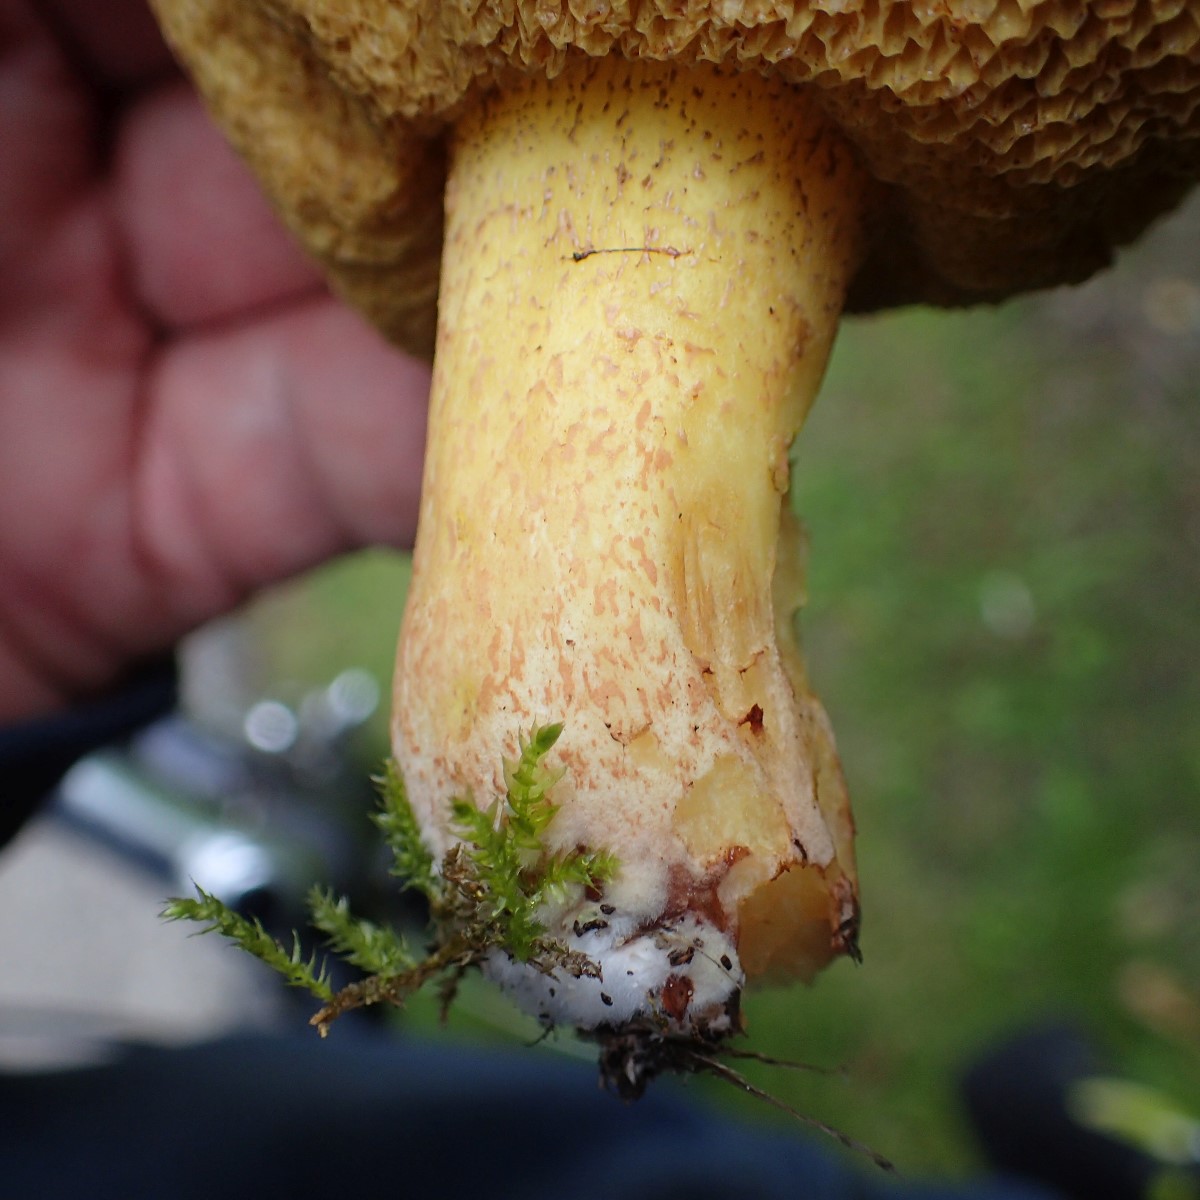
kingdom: Fungi
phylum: Basidiomycota
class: Agaricomycetes
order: Boletales
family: Suillaceae
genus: Suillus
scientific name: Suillus collinitus
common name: rosafodet slimrørhat
